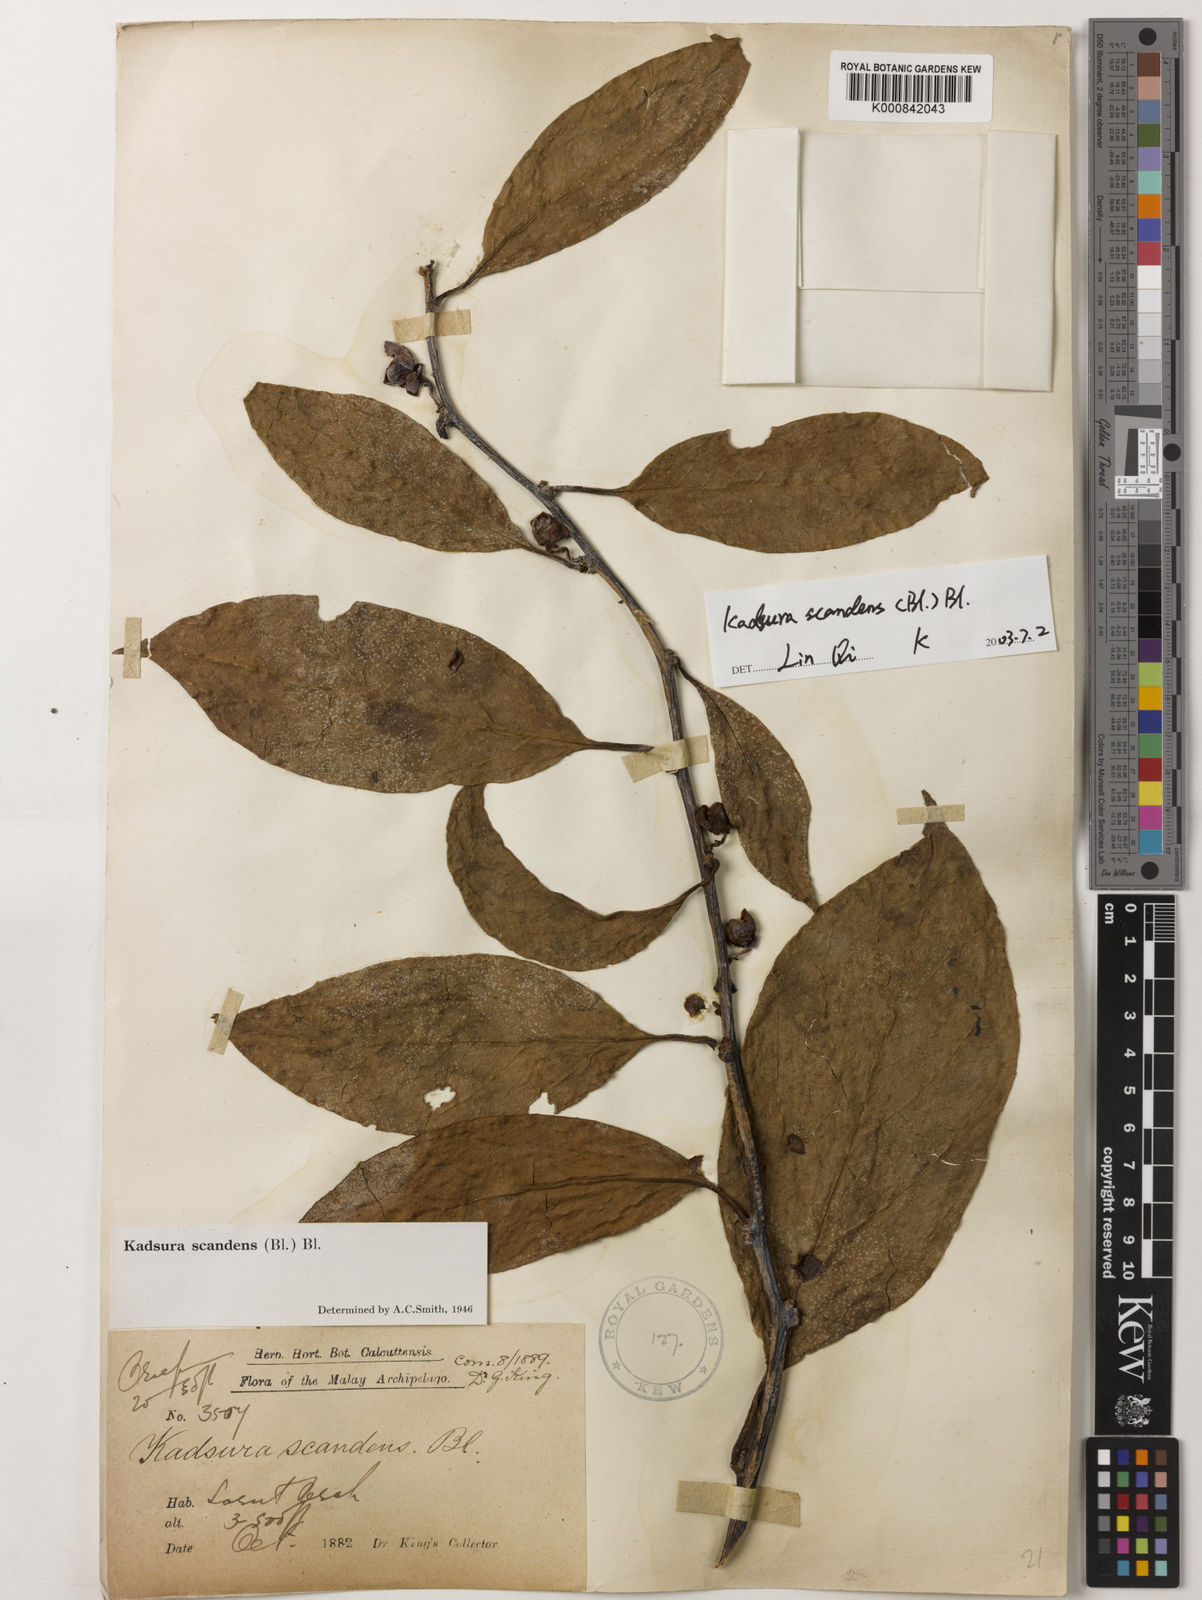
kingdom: Plantae
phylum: Tracheophyta
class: Magnoliopsida
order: Austrobaileyales
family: Schisandraceae
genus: Kadsura
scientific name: Kadsura scandens
